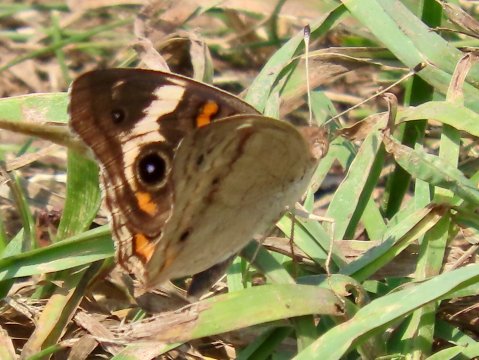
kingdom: Animalia
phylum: Arthropoda
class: Insecta
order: Lepidoptera
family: Nymphalidae
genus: Junonia
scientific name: Junonia coenia
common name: Common Buckeye
